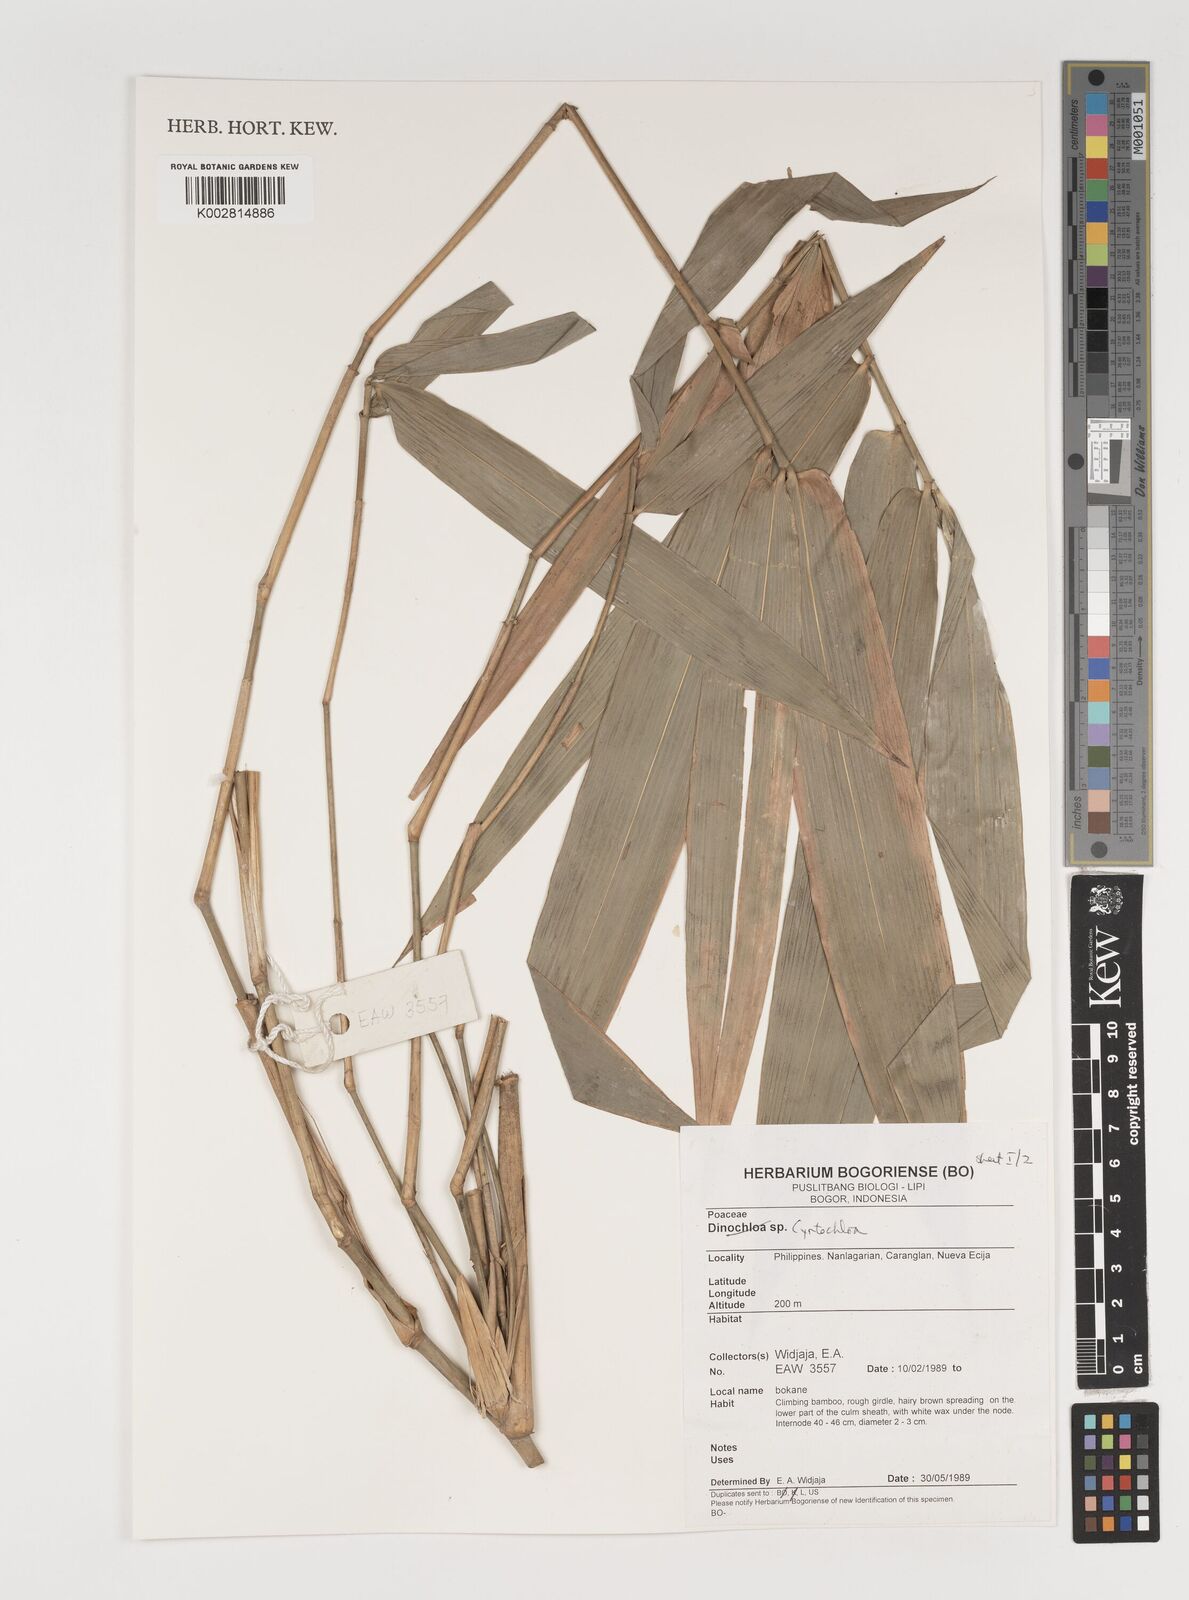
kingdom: Plantae
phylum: Tracheophyta
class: Liliopsida
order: Poales
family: Poaceae
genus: Fimbribambusa
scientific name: Fimbribambusa
